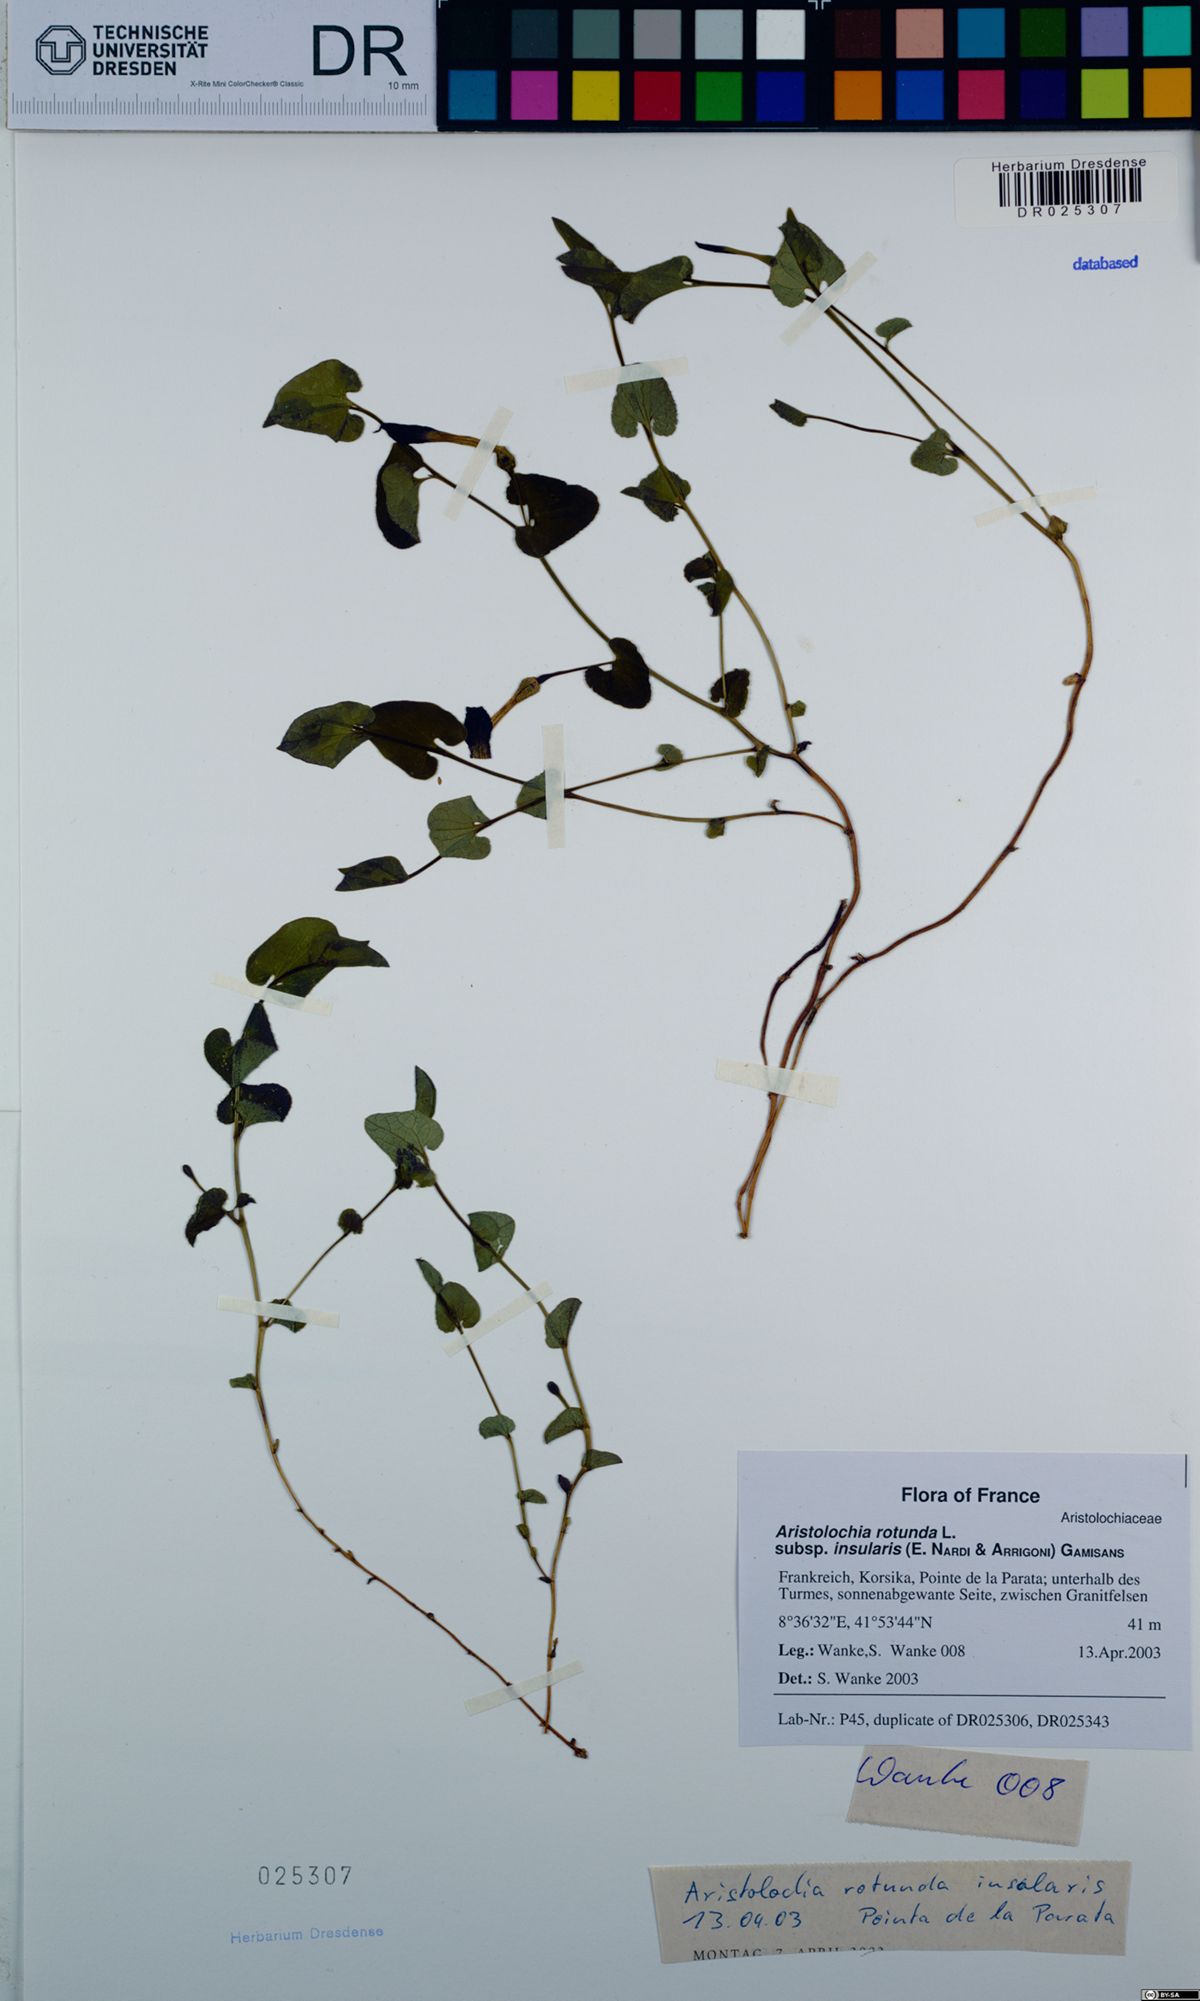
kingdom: Plantae
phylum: Tracheophyta
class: Magnoliopsida
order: Piperales
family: Aristolochiaceae
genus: Aristolochia
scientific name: Aristolochia rotunda
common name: Smearwort
